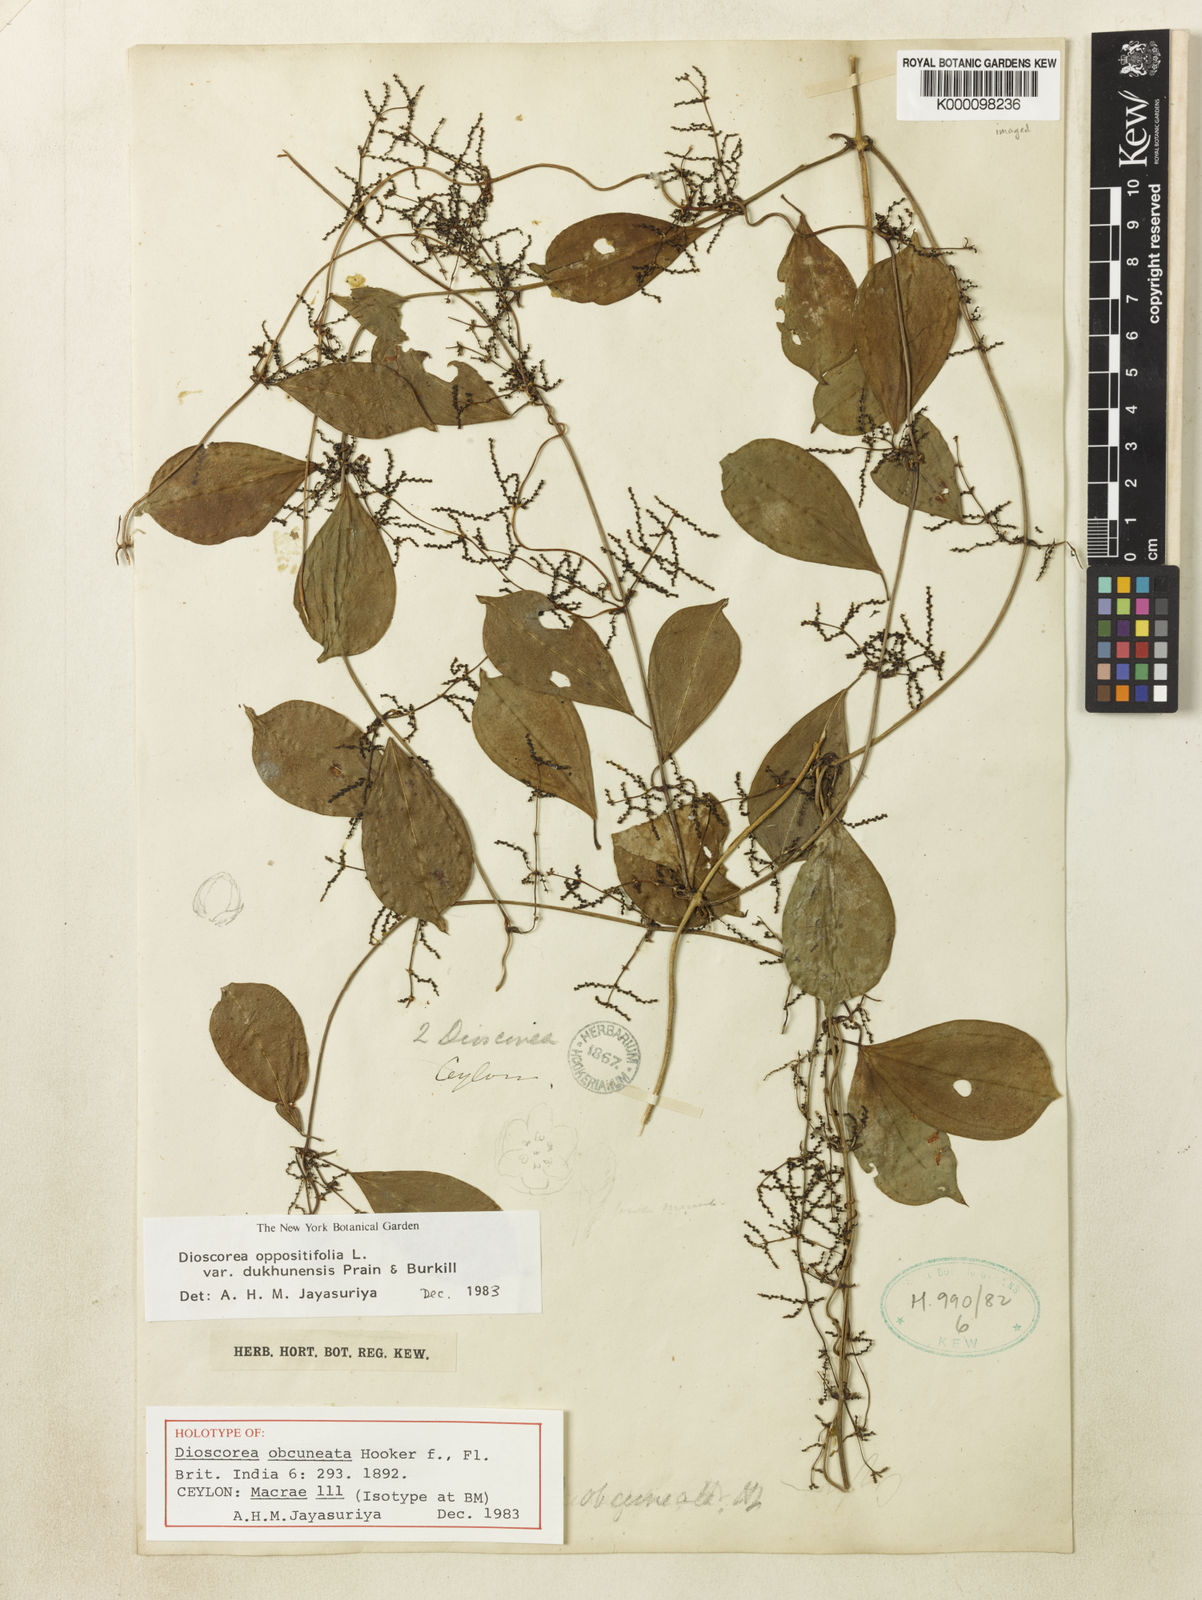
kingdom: Plantae
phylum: Tracheophyta
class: Liliopsida
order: Dioscoreales
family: Dioscoreaceae
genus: Dioscorea
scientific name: Dioscorea oppositifolia
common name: Chinese yam
